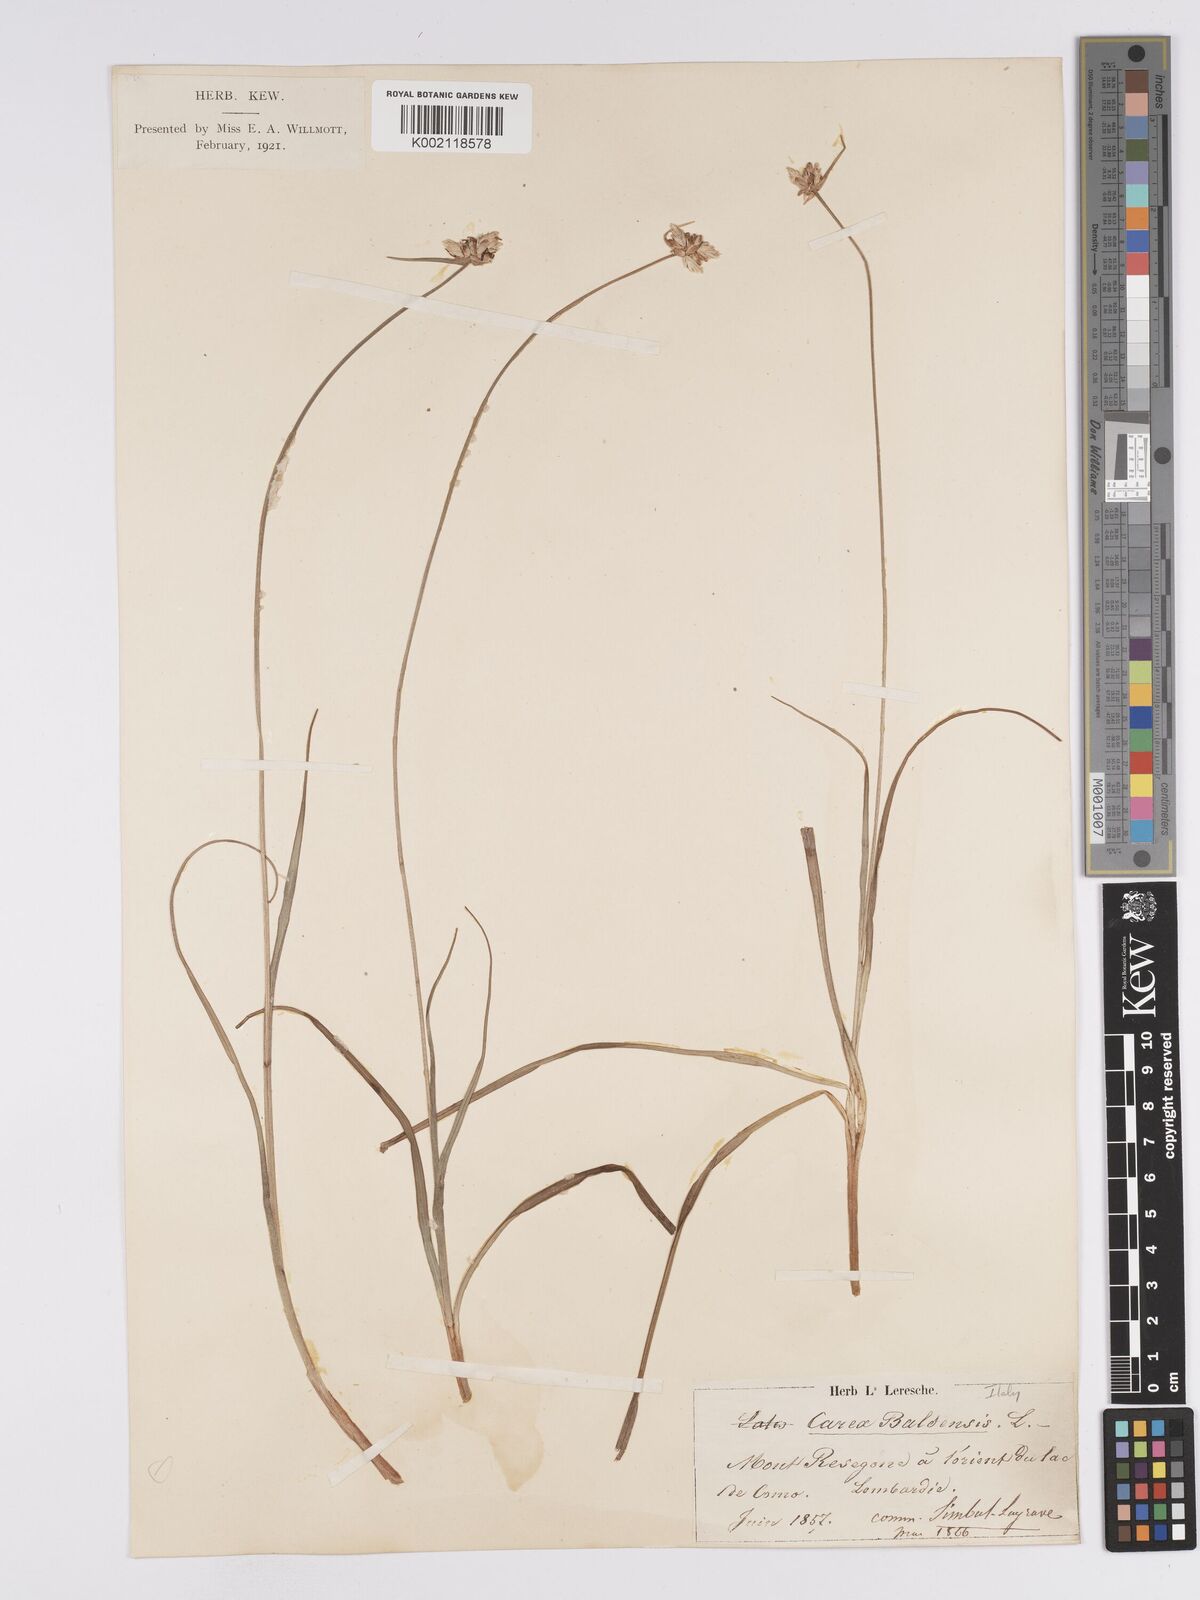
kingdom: Plantae
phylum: Tracheophyta
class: Liliopsida
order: Poales
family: Cyperaceae
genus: Carex
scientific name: Carex baldensis
